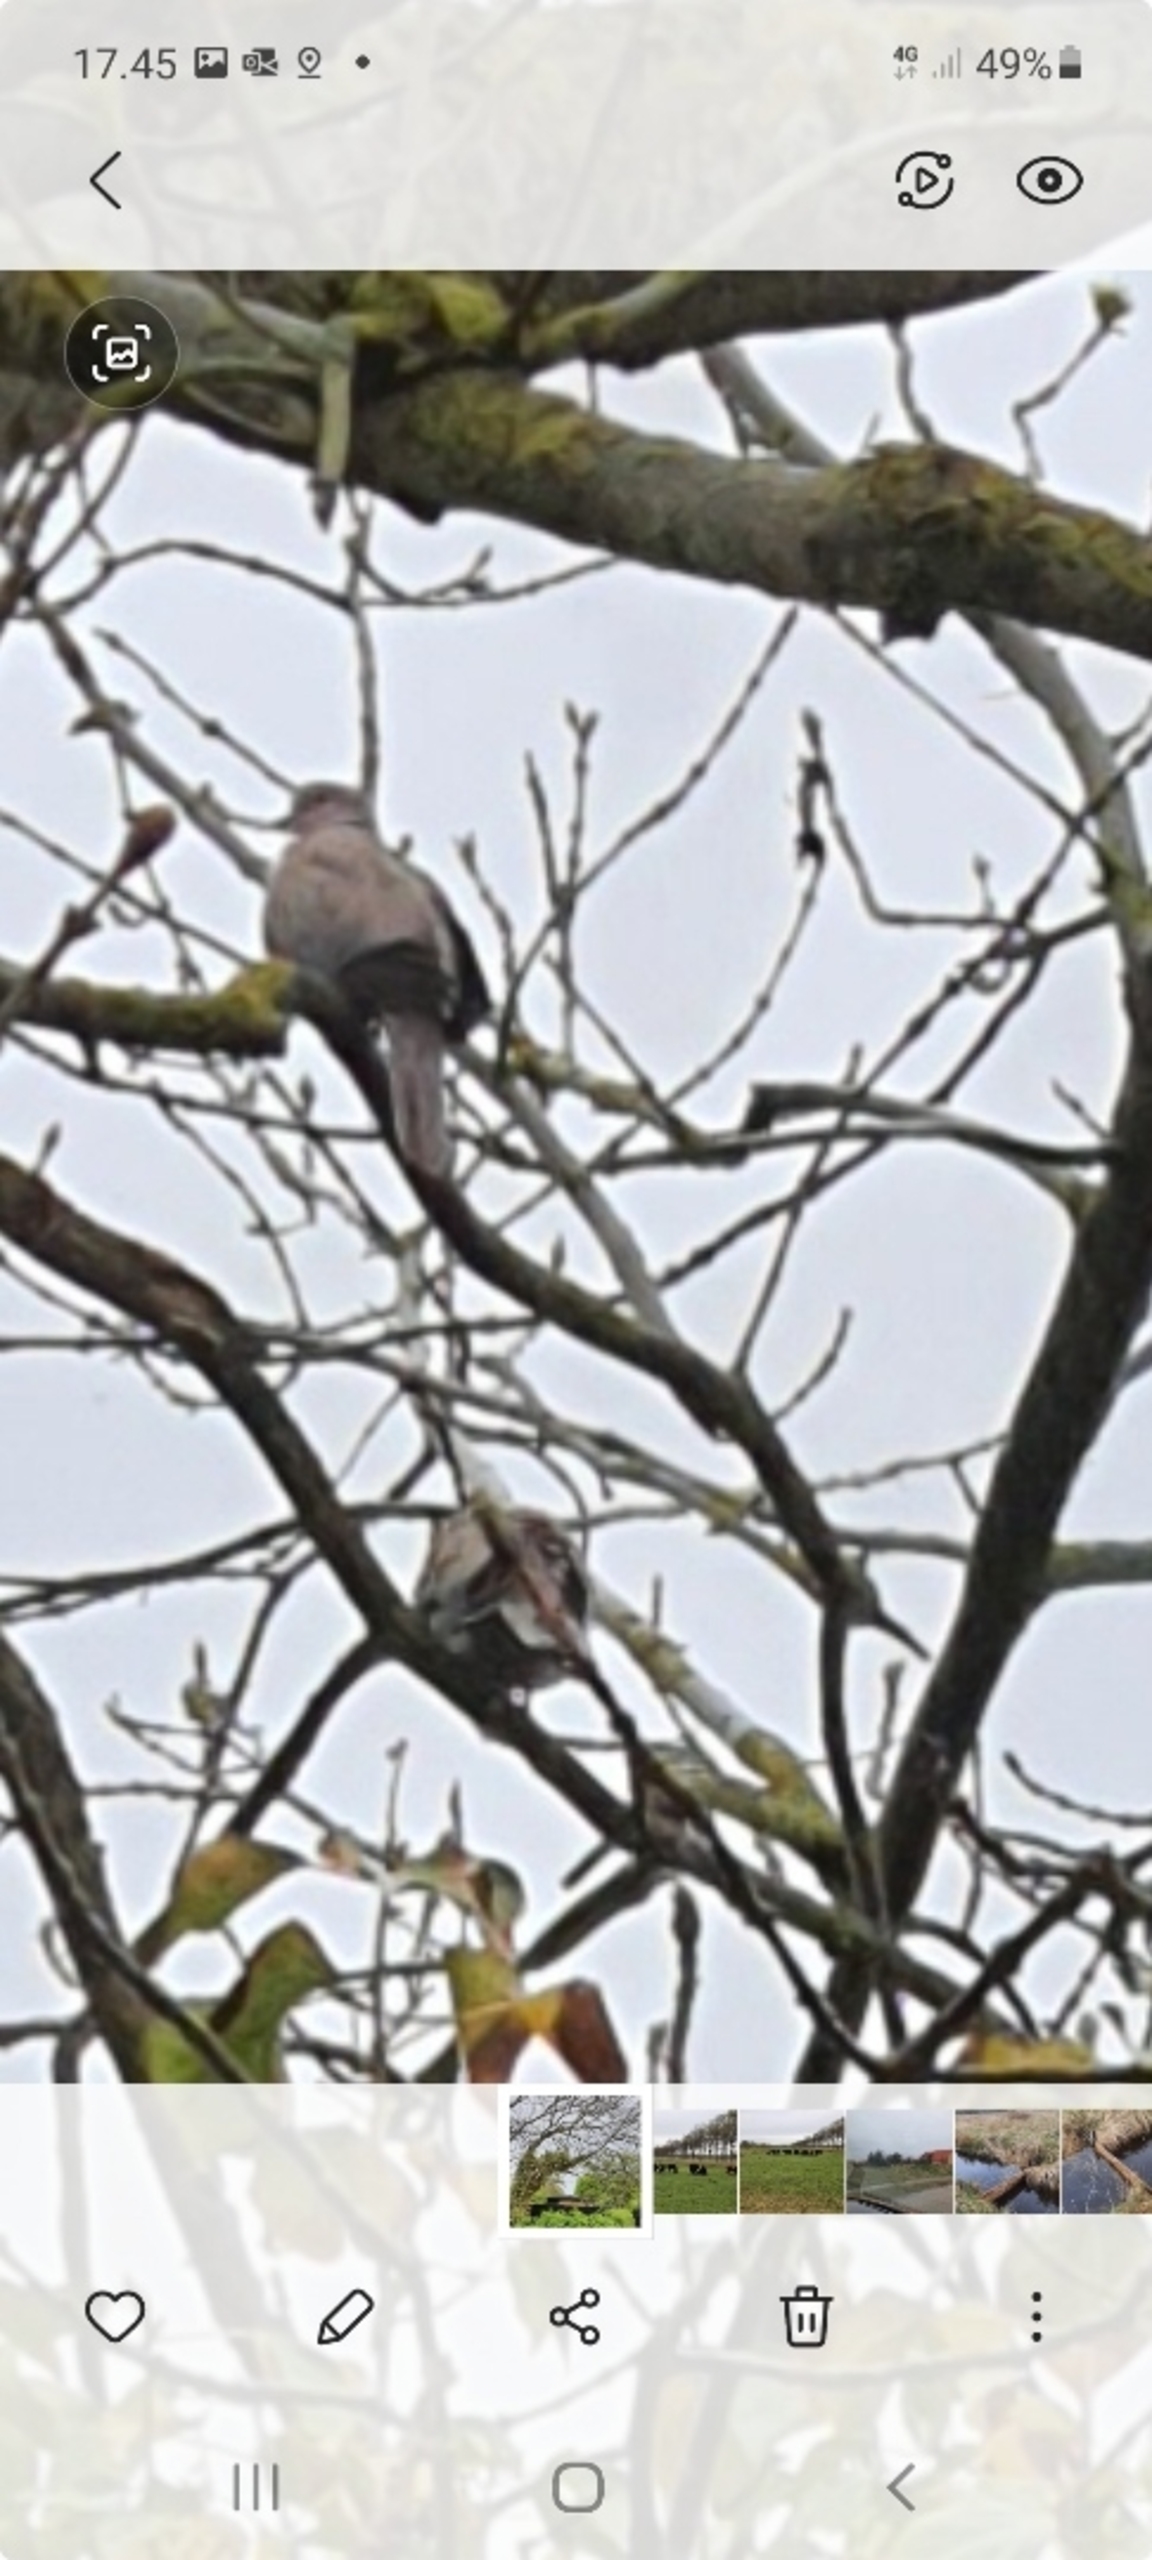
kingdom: Animalia
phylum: Chordata
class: Aves
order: Columbiformes
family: Columbidae
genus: Streptopelia
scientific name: Streptopelia decaocto
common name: Tyrkerdue
